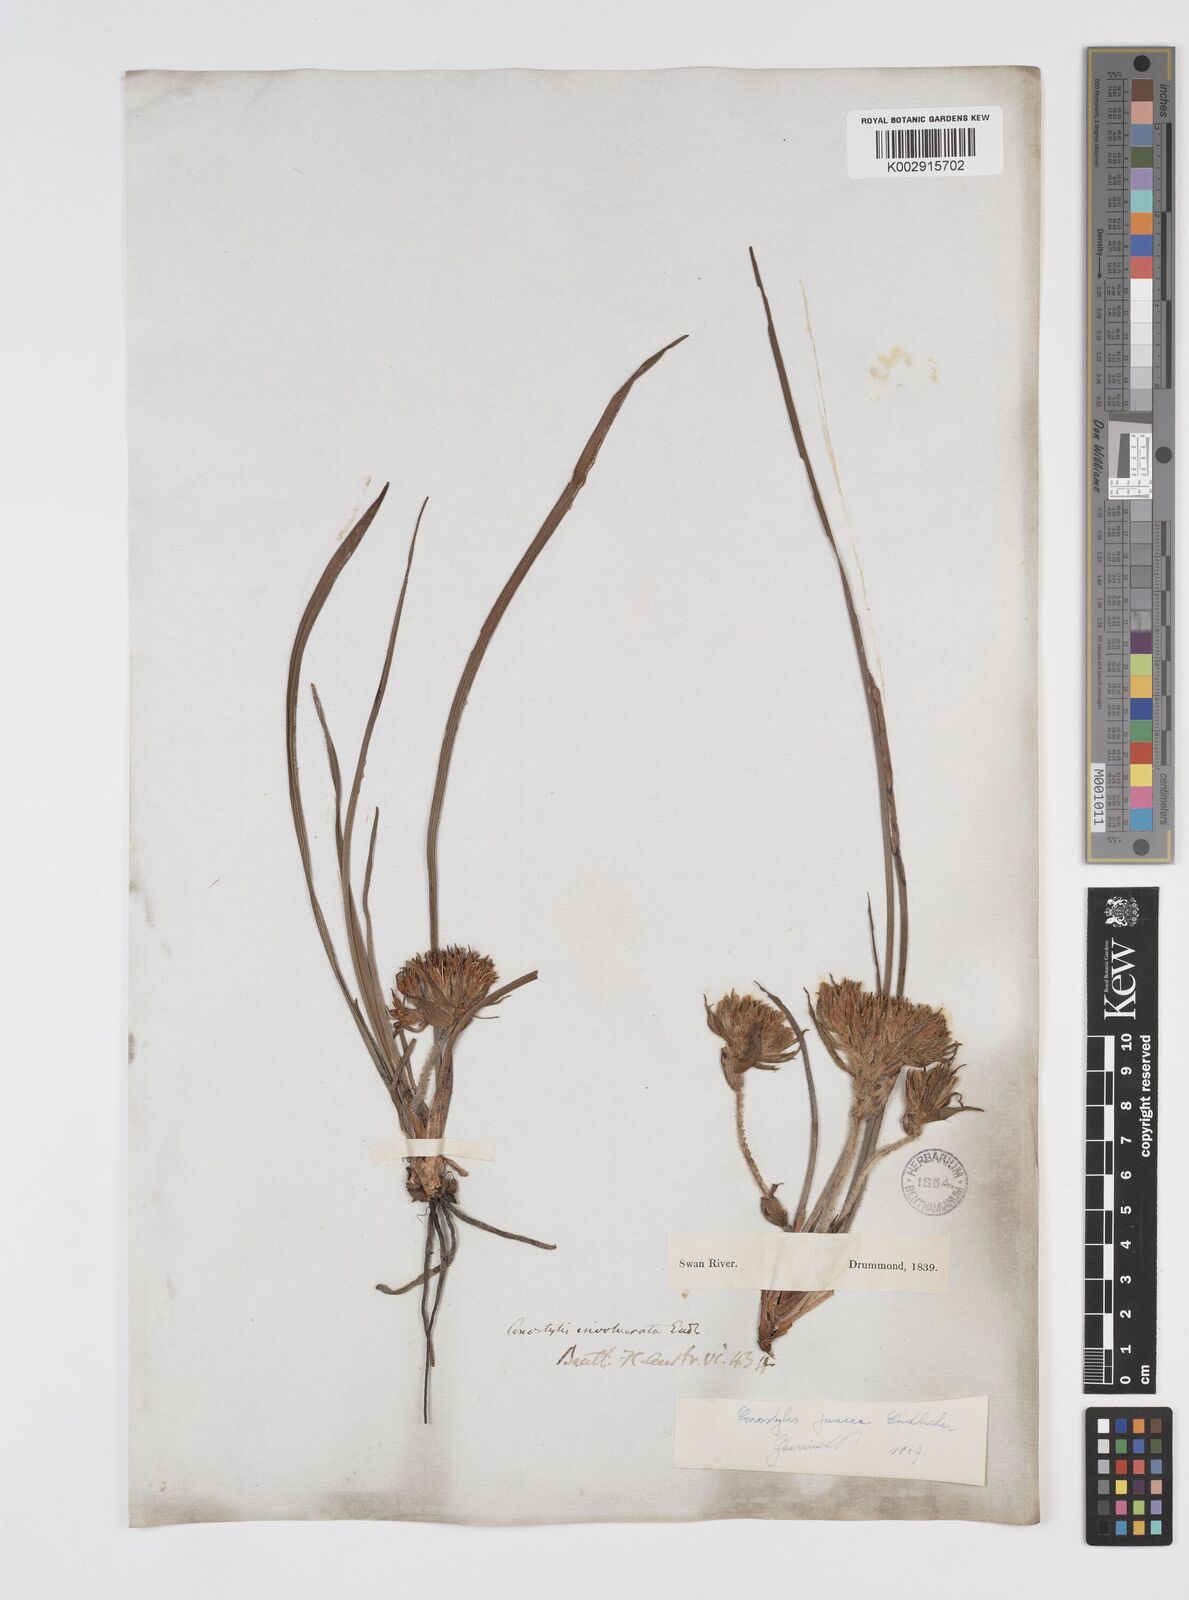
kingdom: Plantae
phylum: Tracheophyta
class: Liliopsida
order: Commelinales
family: Haemodoraceae
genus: Conostylis
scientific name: Conostylis juncea
